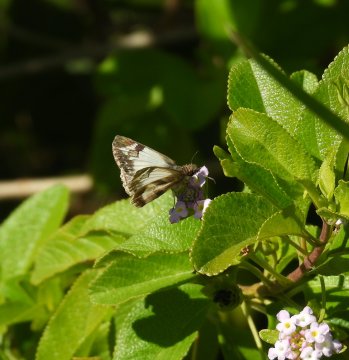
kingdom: Animalia
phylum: Arthropoda
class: Insecta
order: Lepidoptera
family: Hesperiidae
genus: Heliopetes
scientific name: Heliopetes laviana
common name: Laviana White-Skipper
